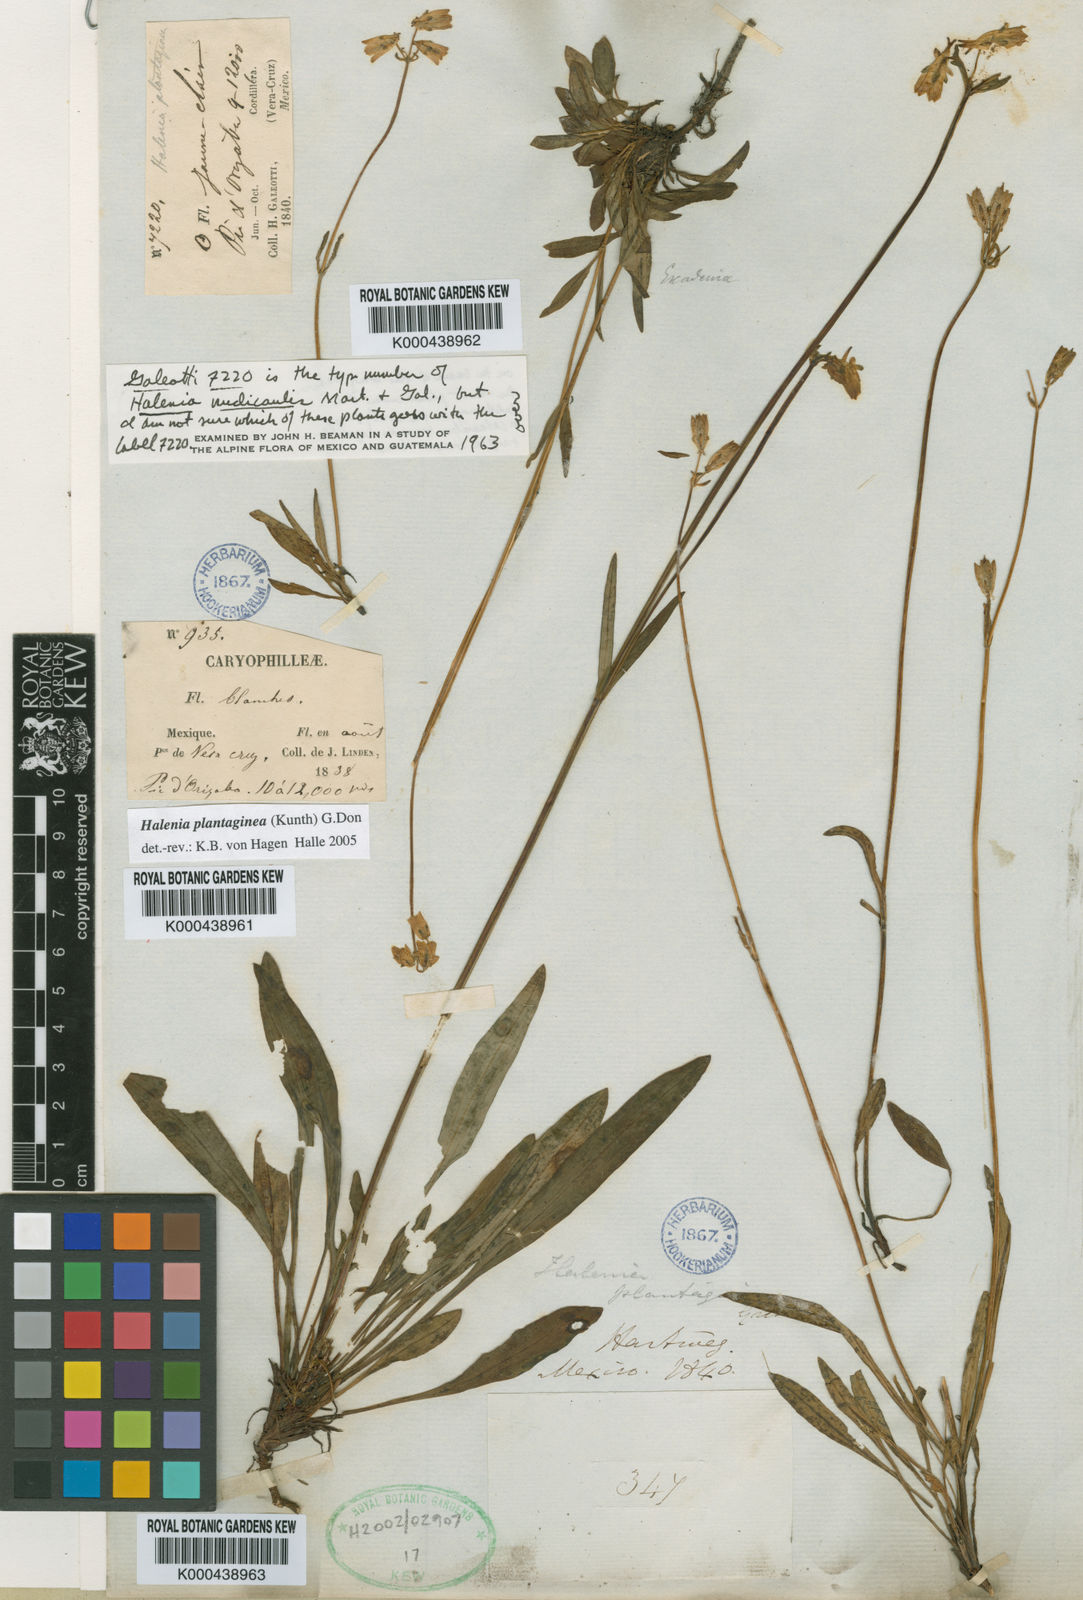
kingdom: Plantae
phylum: Tracheophyta
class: Magnoliopsida
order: Gentianales
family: Gentianaceae
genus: Halenia
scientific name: Halenia plantaginea
